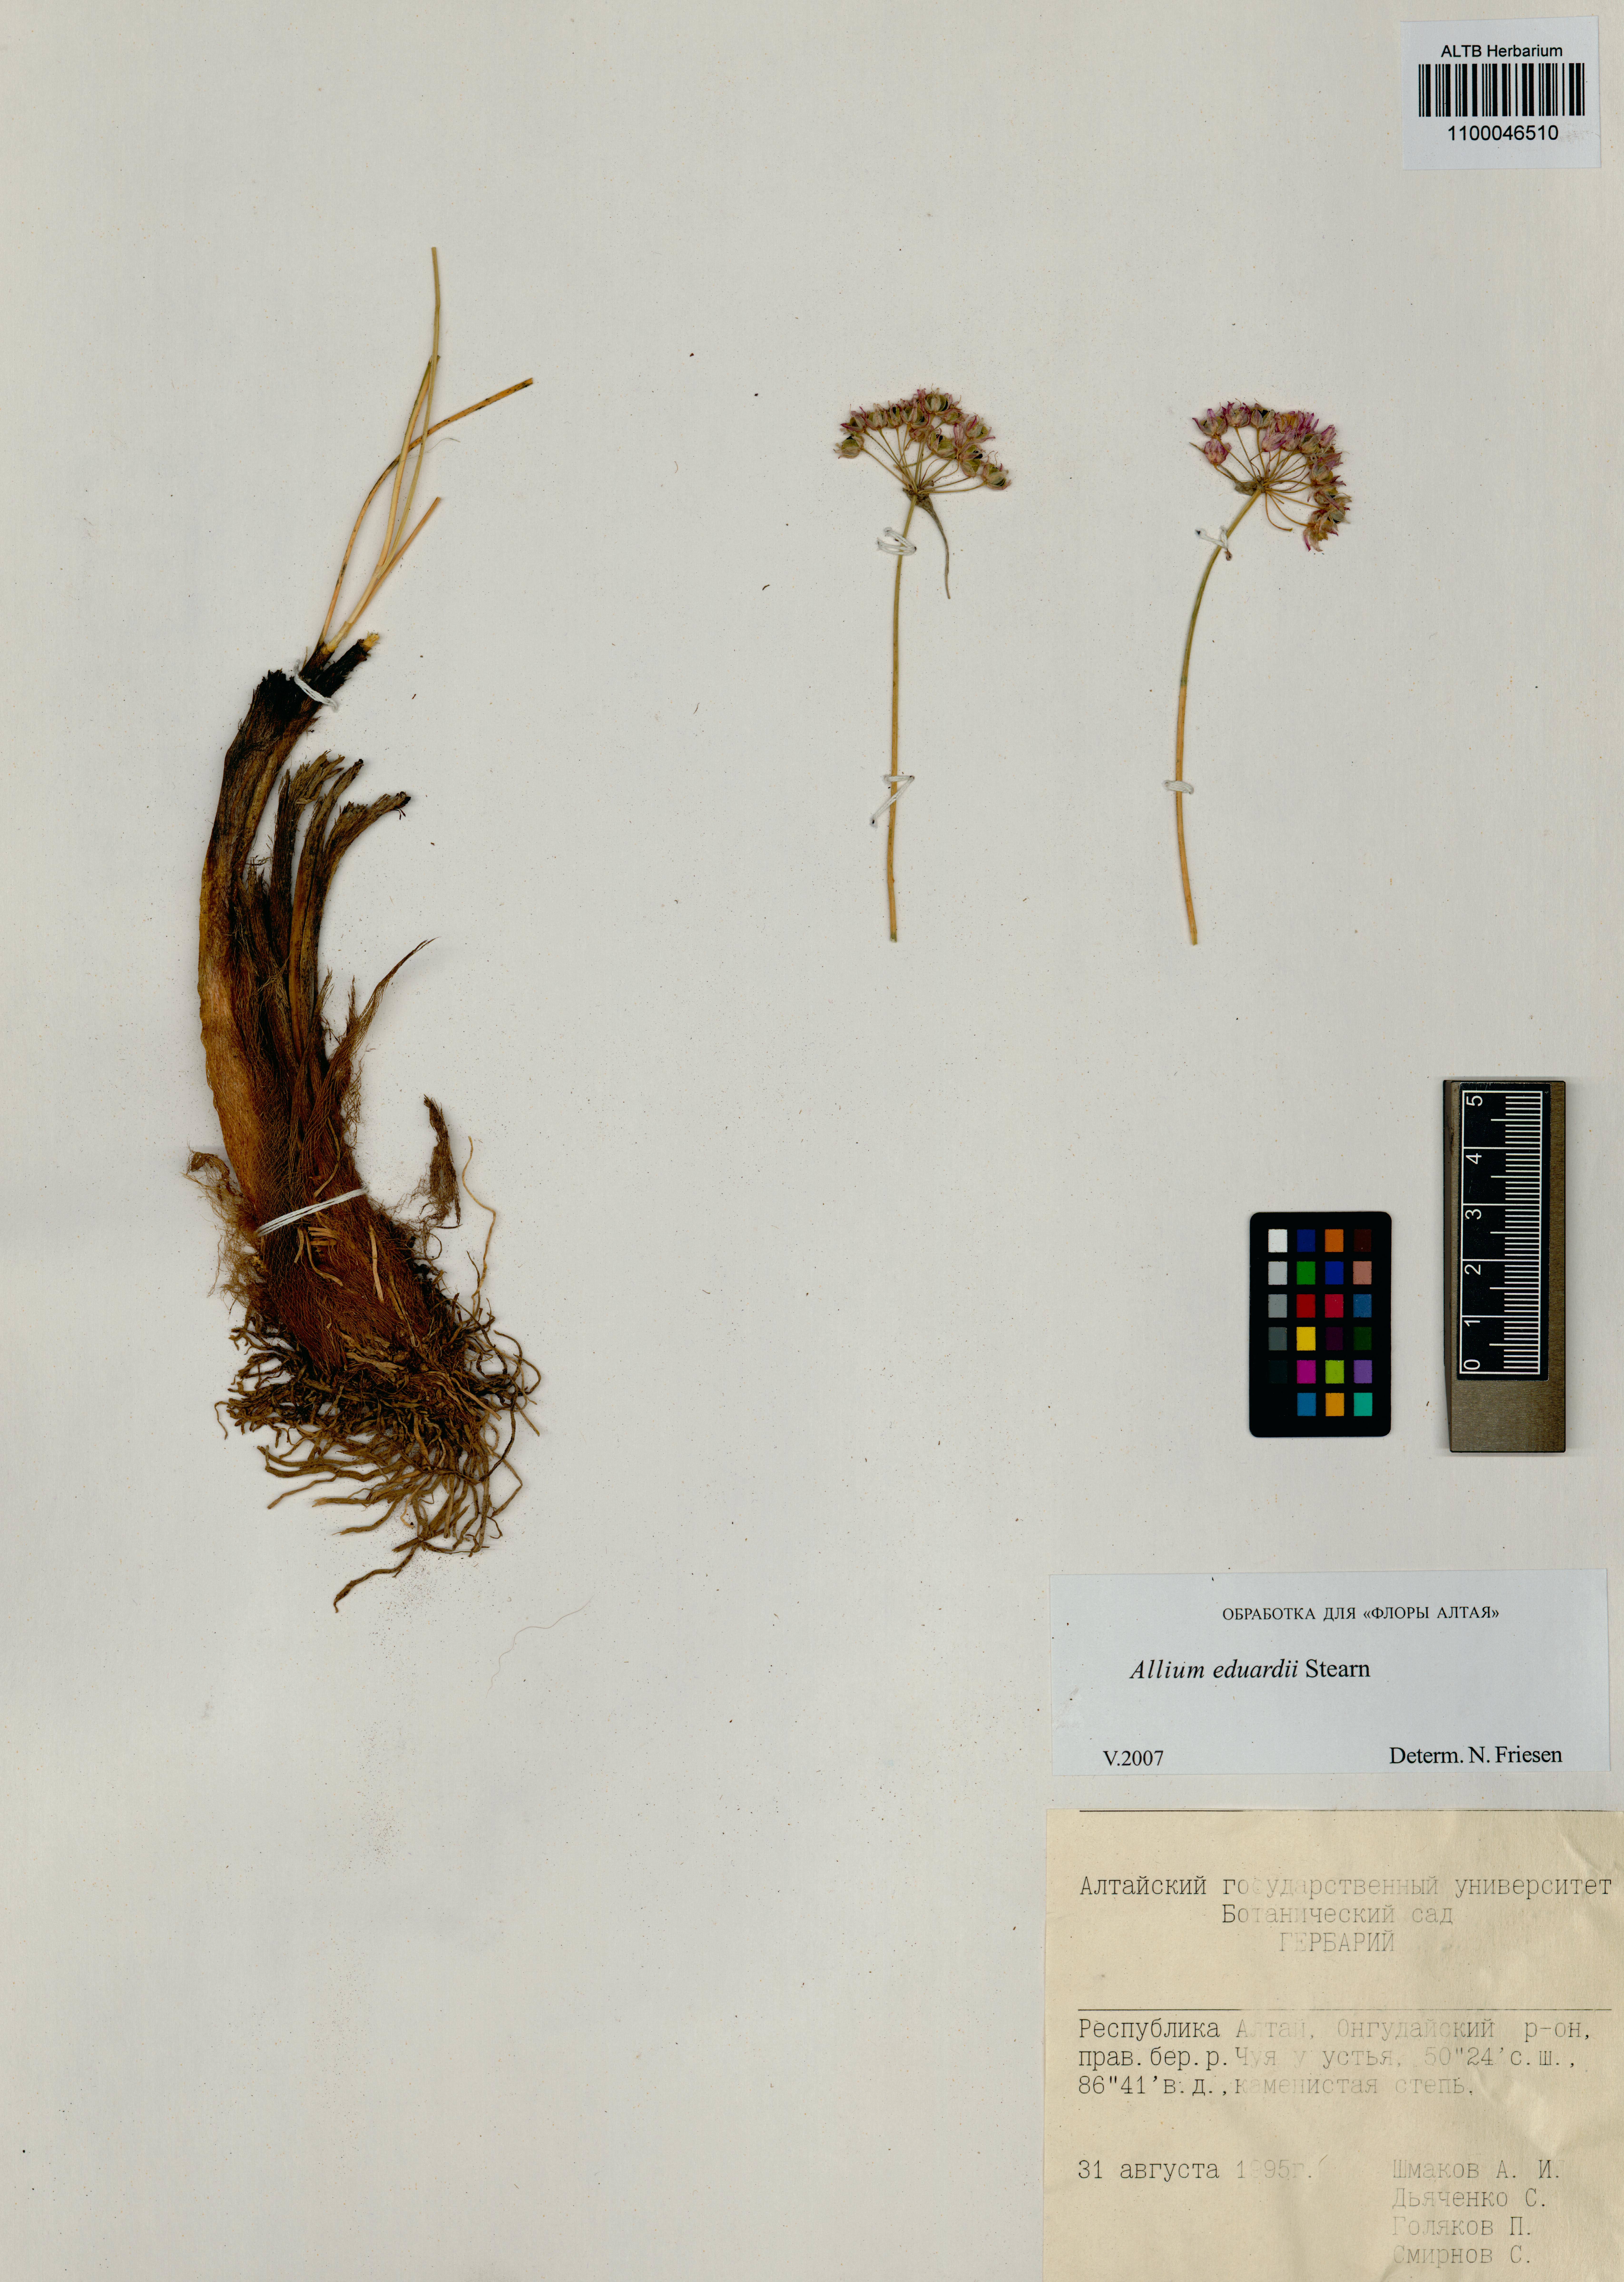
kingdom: Plantae
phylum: Tracheophyta
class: Liliopsida
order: Asparagales
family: Amaryllidaceae
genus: Allium
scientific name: Allium eduardi
